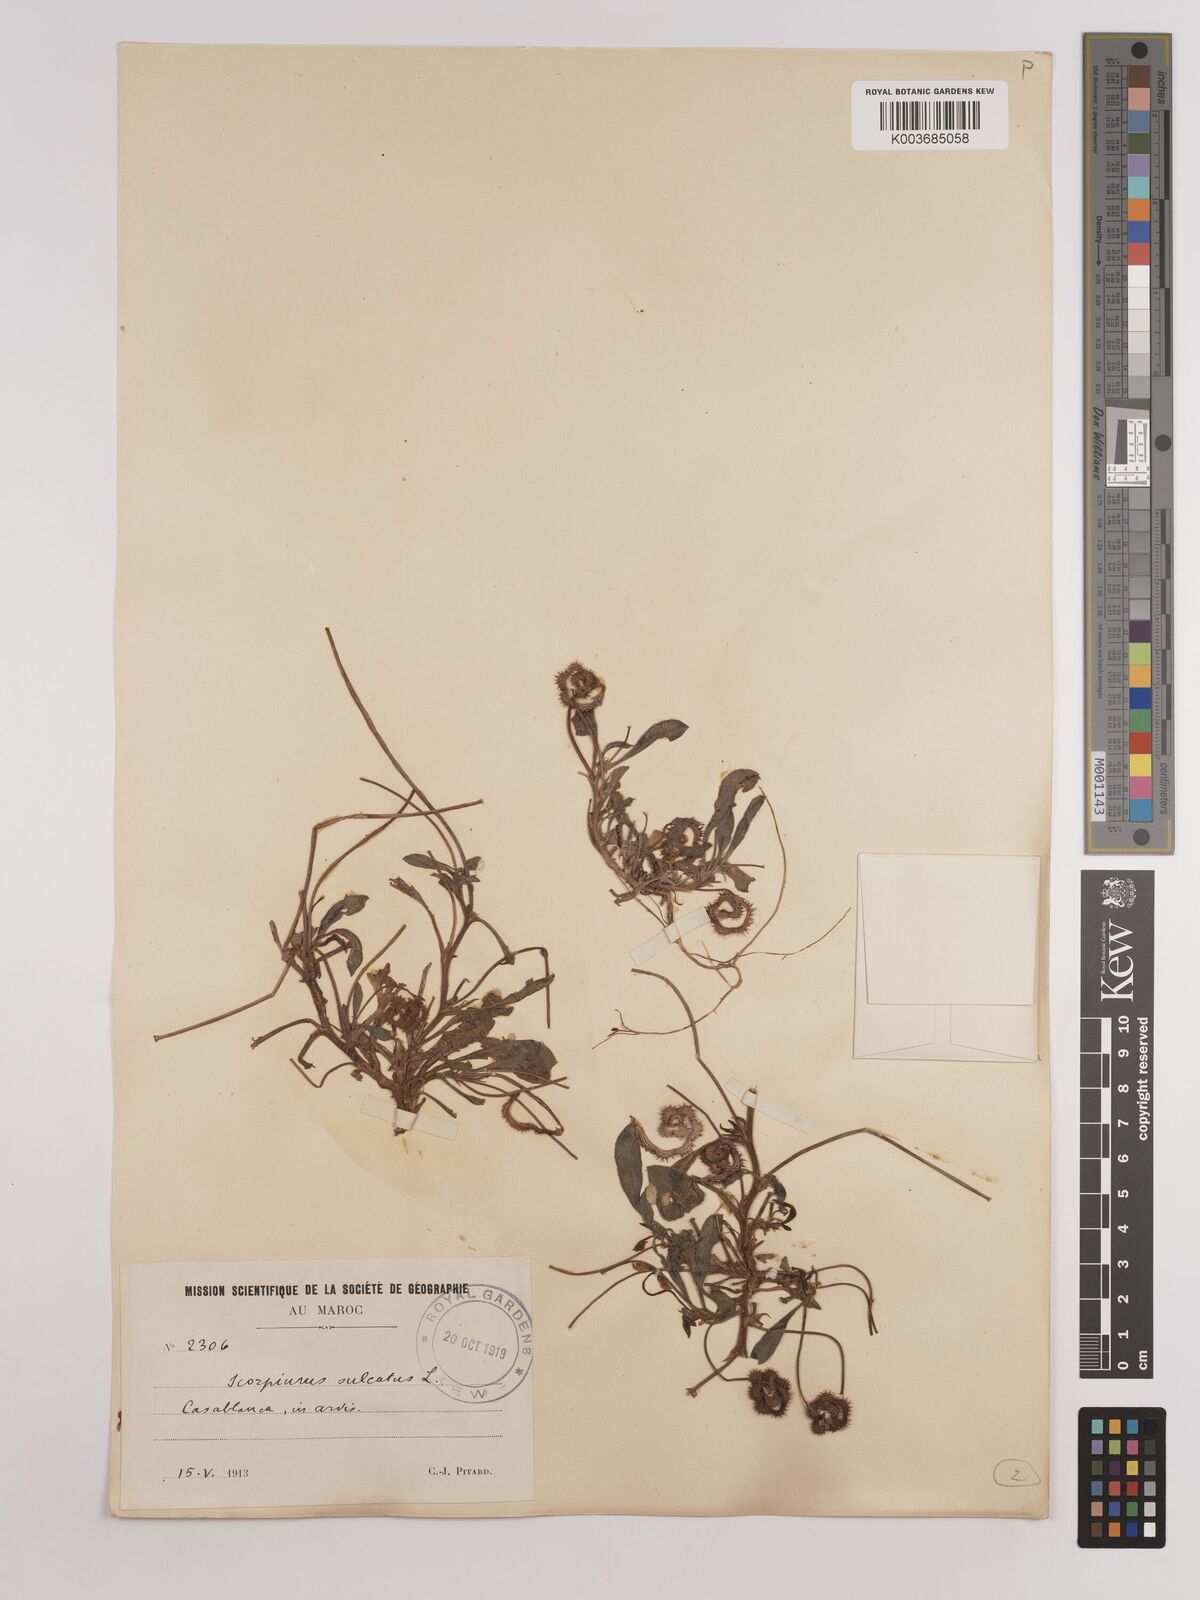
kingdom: Plantae
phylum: Tracheophyta
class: Magnoliopsida
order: Fabales
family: Fabaceae
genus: Scorpiurus
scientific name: Scorpiurus muricatus
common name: Caterpillar-plant
